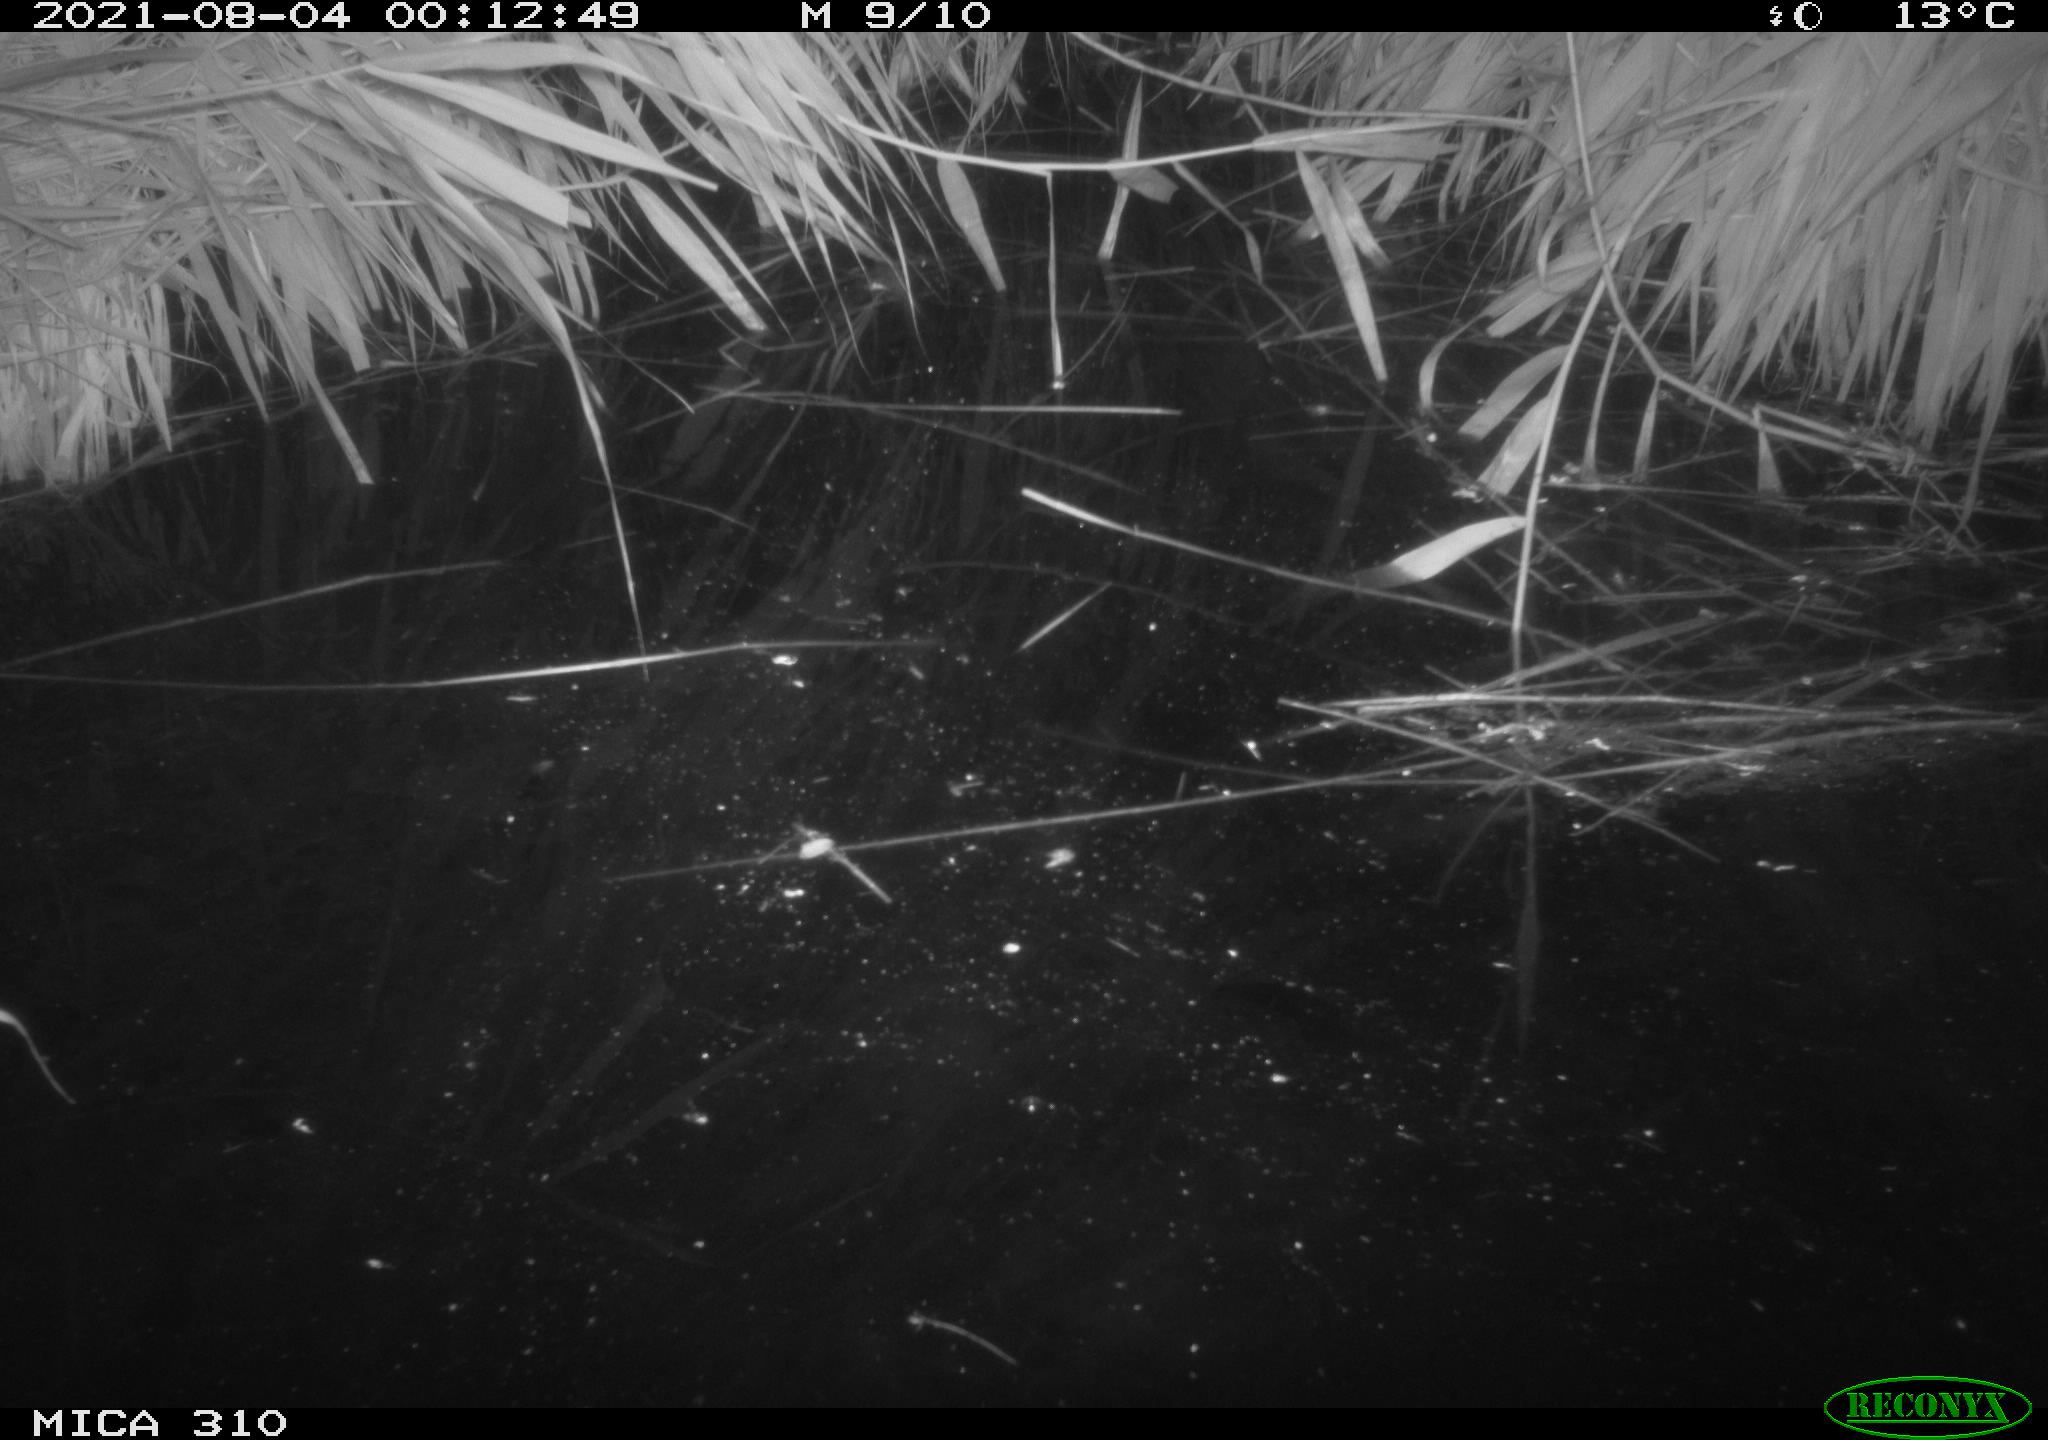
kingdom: Animalia
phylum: Chordata
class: Aves
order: Anseriformes
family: Anatidae
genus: Anas
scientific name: Anas platyrhynchos
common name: Mallard
